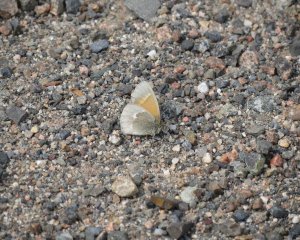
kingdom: Animalia
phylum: Arthropoda
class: Insecta
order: Lepidoptera
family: Nymphalidae
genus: Coenonympha
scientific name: Coenonympha tullia
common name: Large Heath
